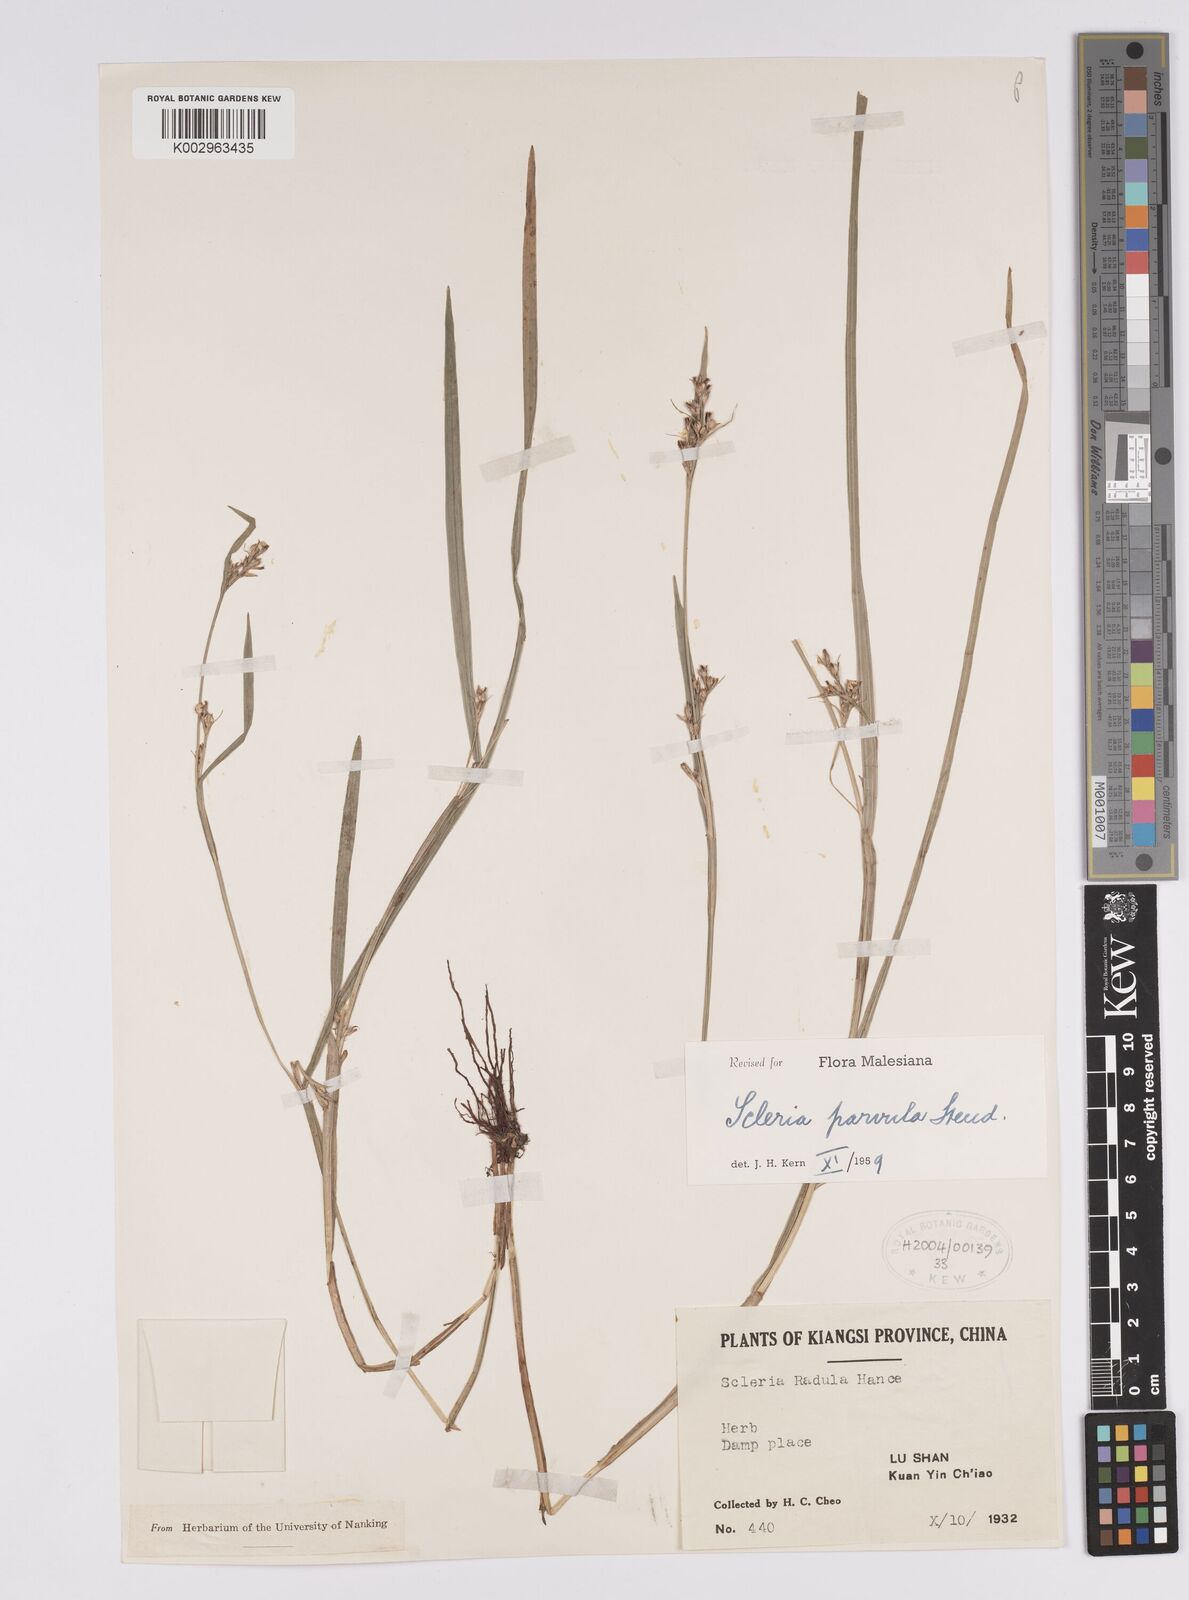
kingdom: Plantae
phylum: Tracheophyta
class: Liliopsida
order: Poales
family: Cyperaceae
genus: Scleria
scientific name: Scleria parvula
